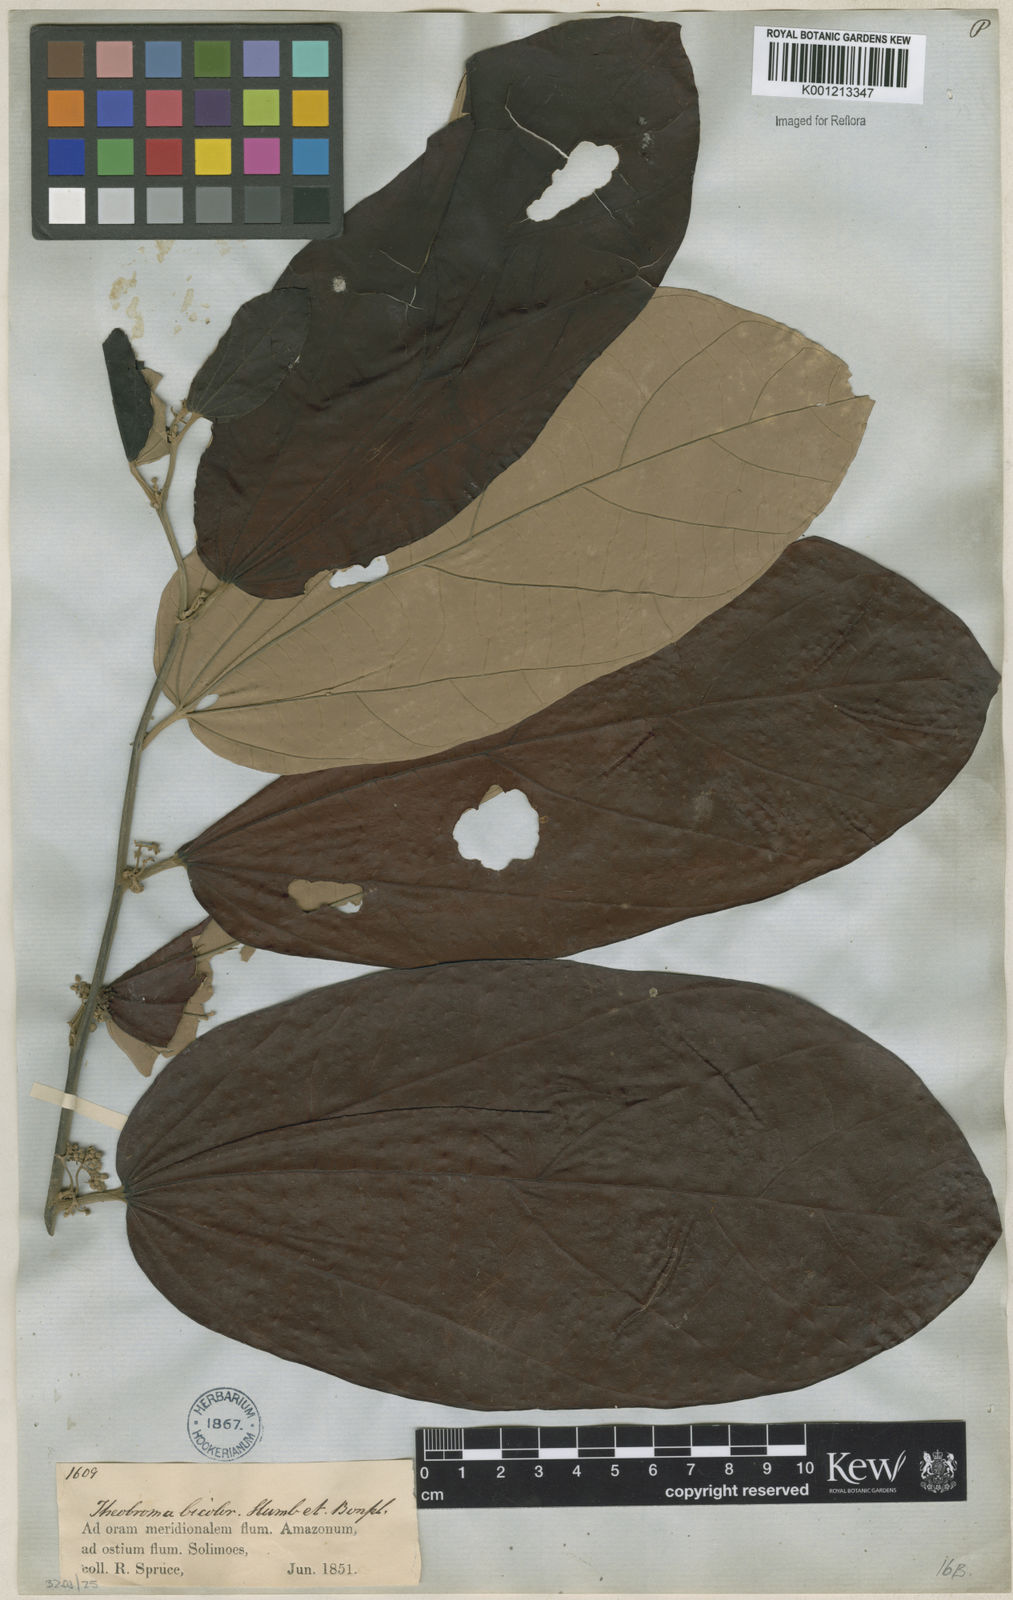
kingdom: Plantae
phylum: Tracheophyta
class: Magnoliopsida
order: Malvales
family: Malvaceae
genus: Theobroma
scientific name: Theobroma
